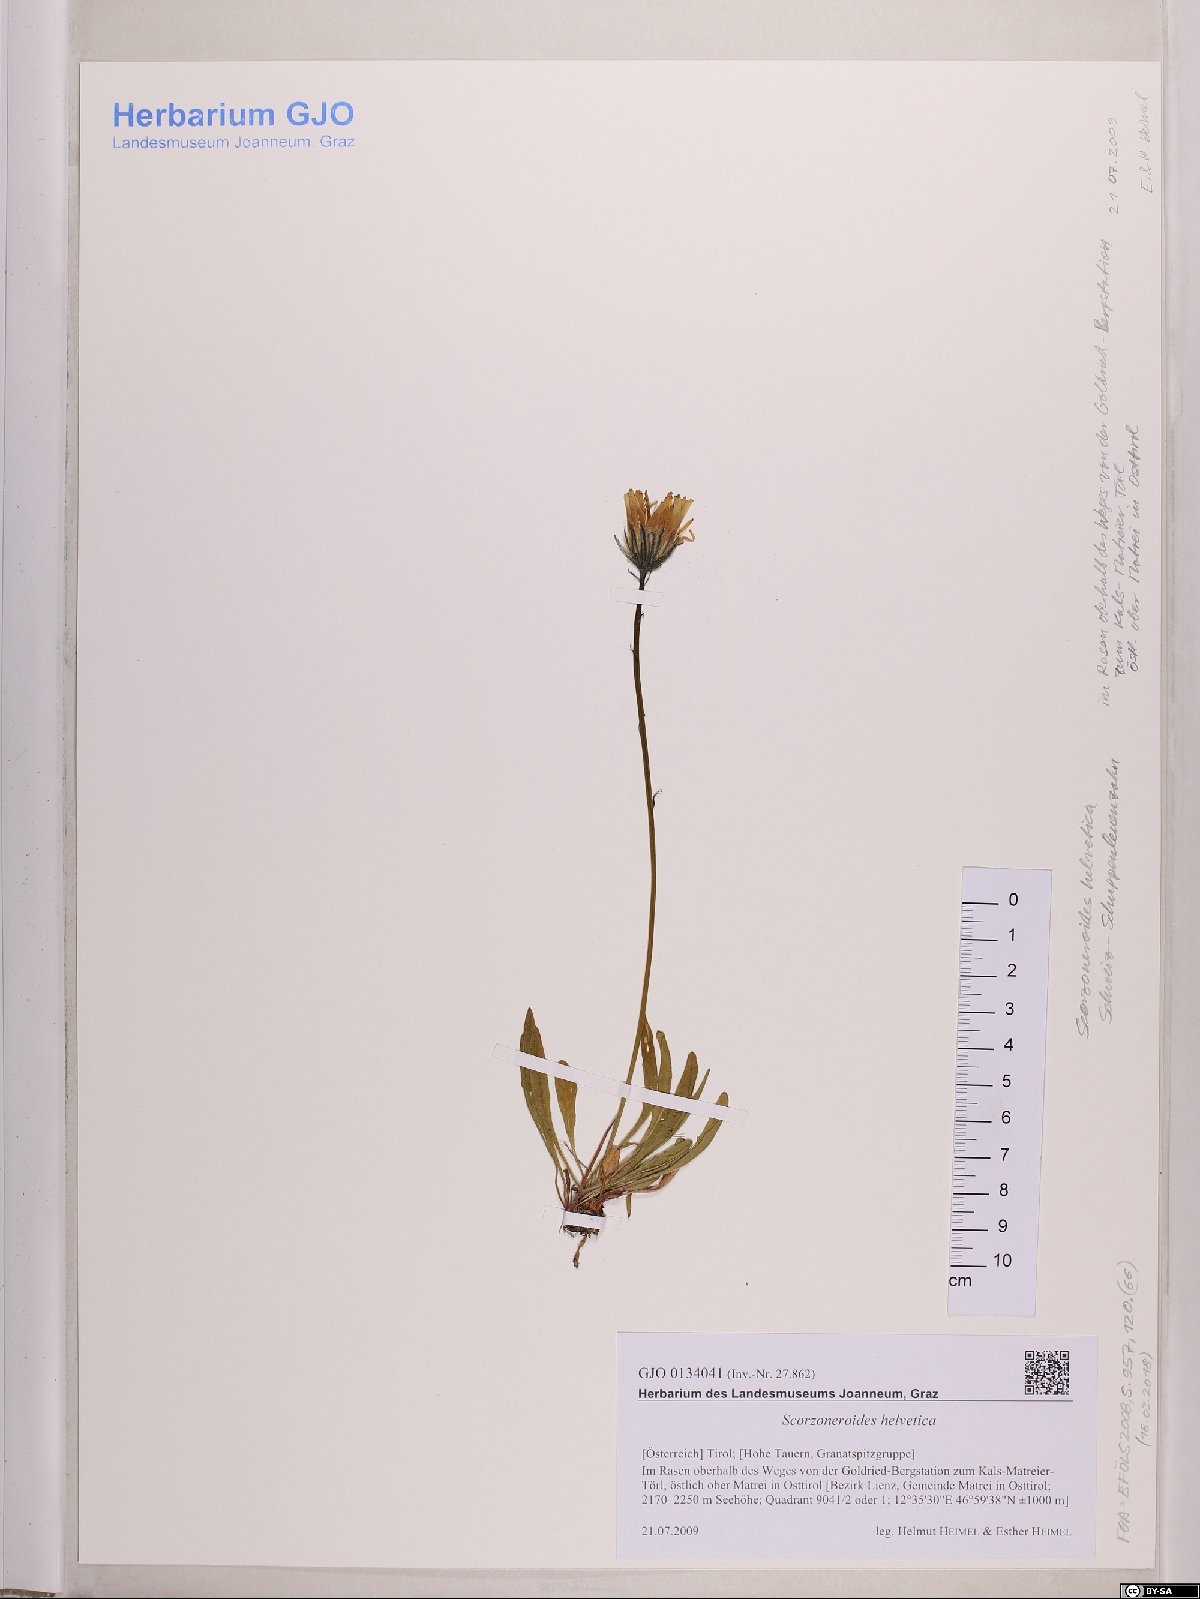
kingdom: Plantae
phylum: Tracheophyta
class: Magnoliopsida
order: Asterales
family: Asteraceae
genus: Scorzoneroides
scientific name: Scorzoneroides helvetica
